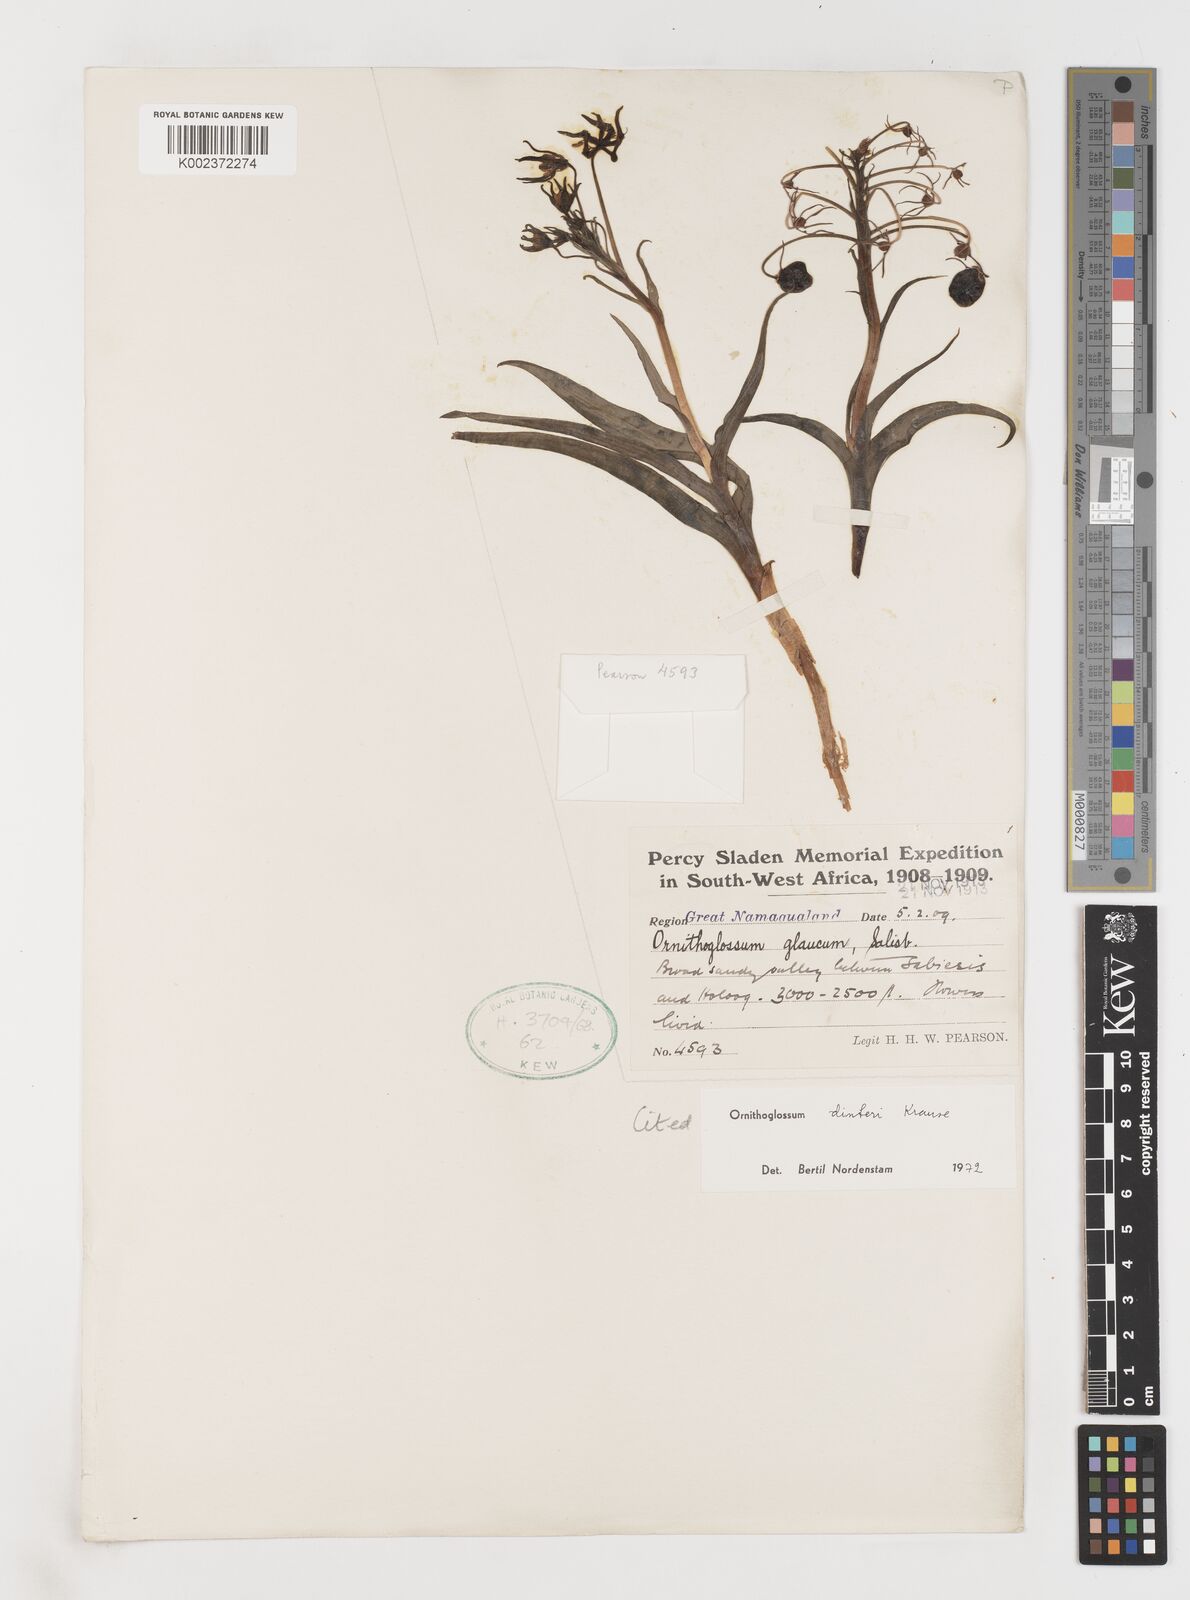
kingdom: Plantae
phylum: Tracheophyta
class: Liliopsida
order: Liliales
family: Colchicaceae
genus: Ornithoglossum
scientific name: Ornithoglossum dinteri
